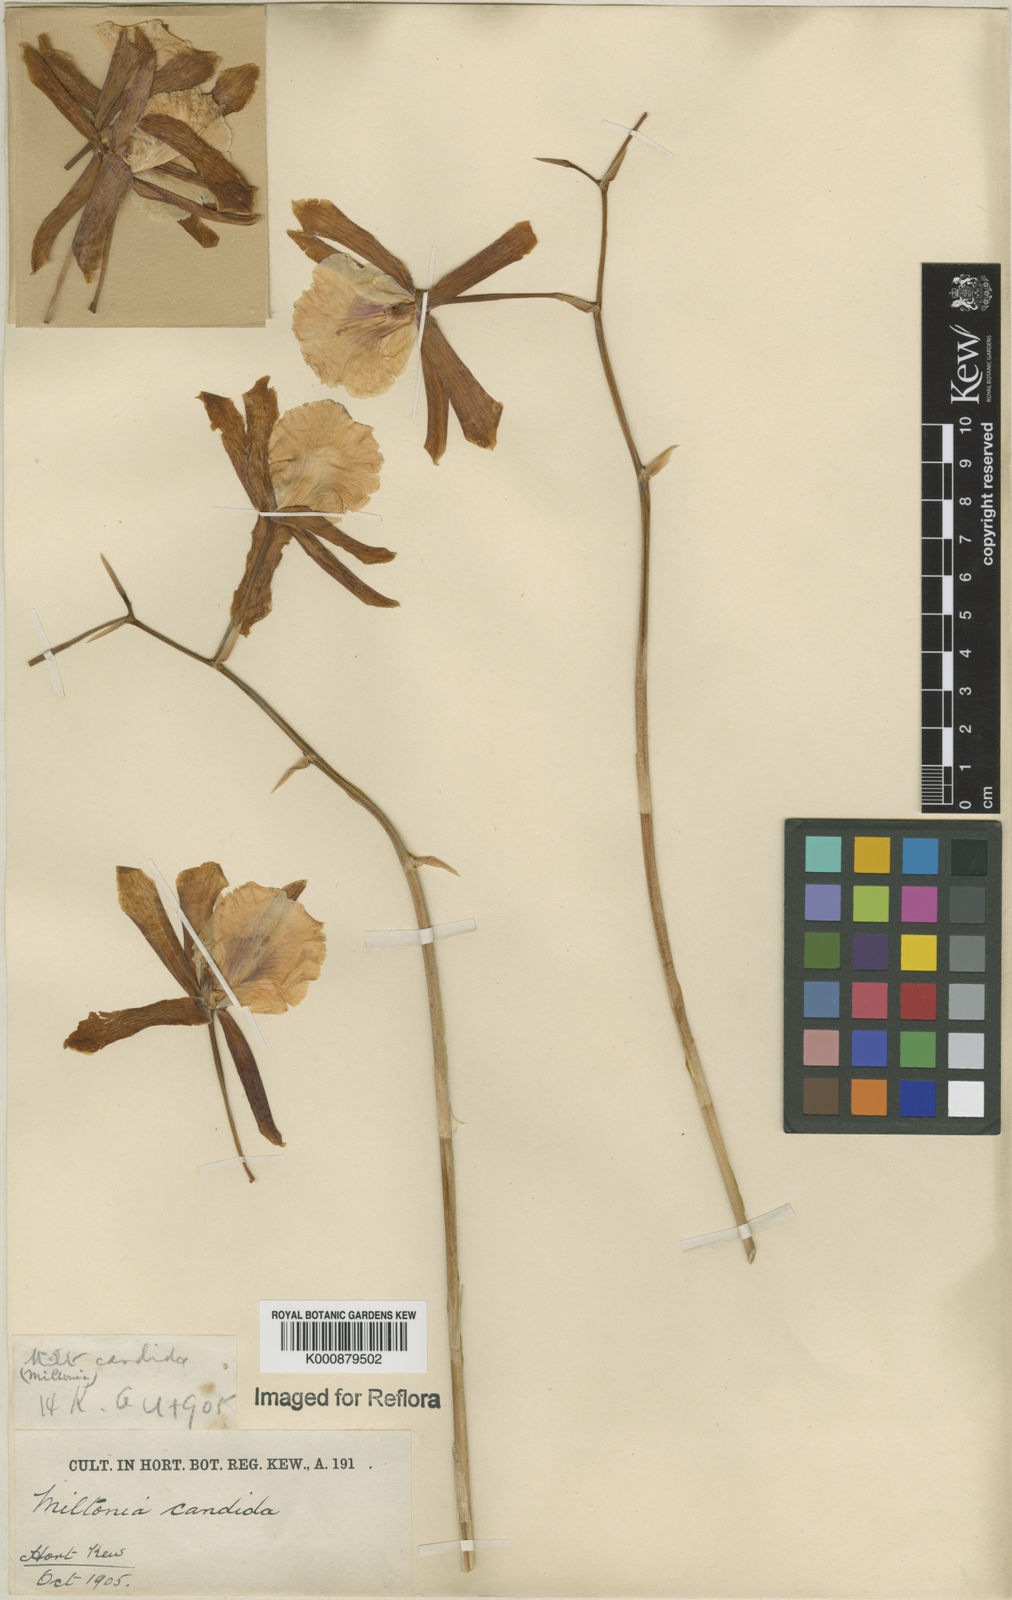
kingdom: Plantae
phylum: Tracheophyta
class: Liliopsida
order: Asparagales
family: Orchidaceae
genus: Miltonia
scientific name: Miltonia candida
